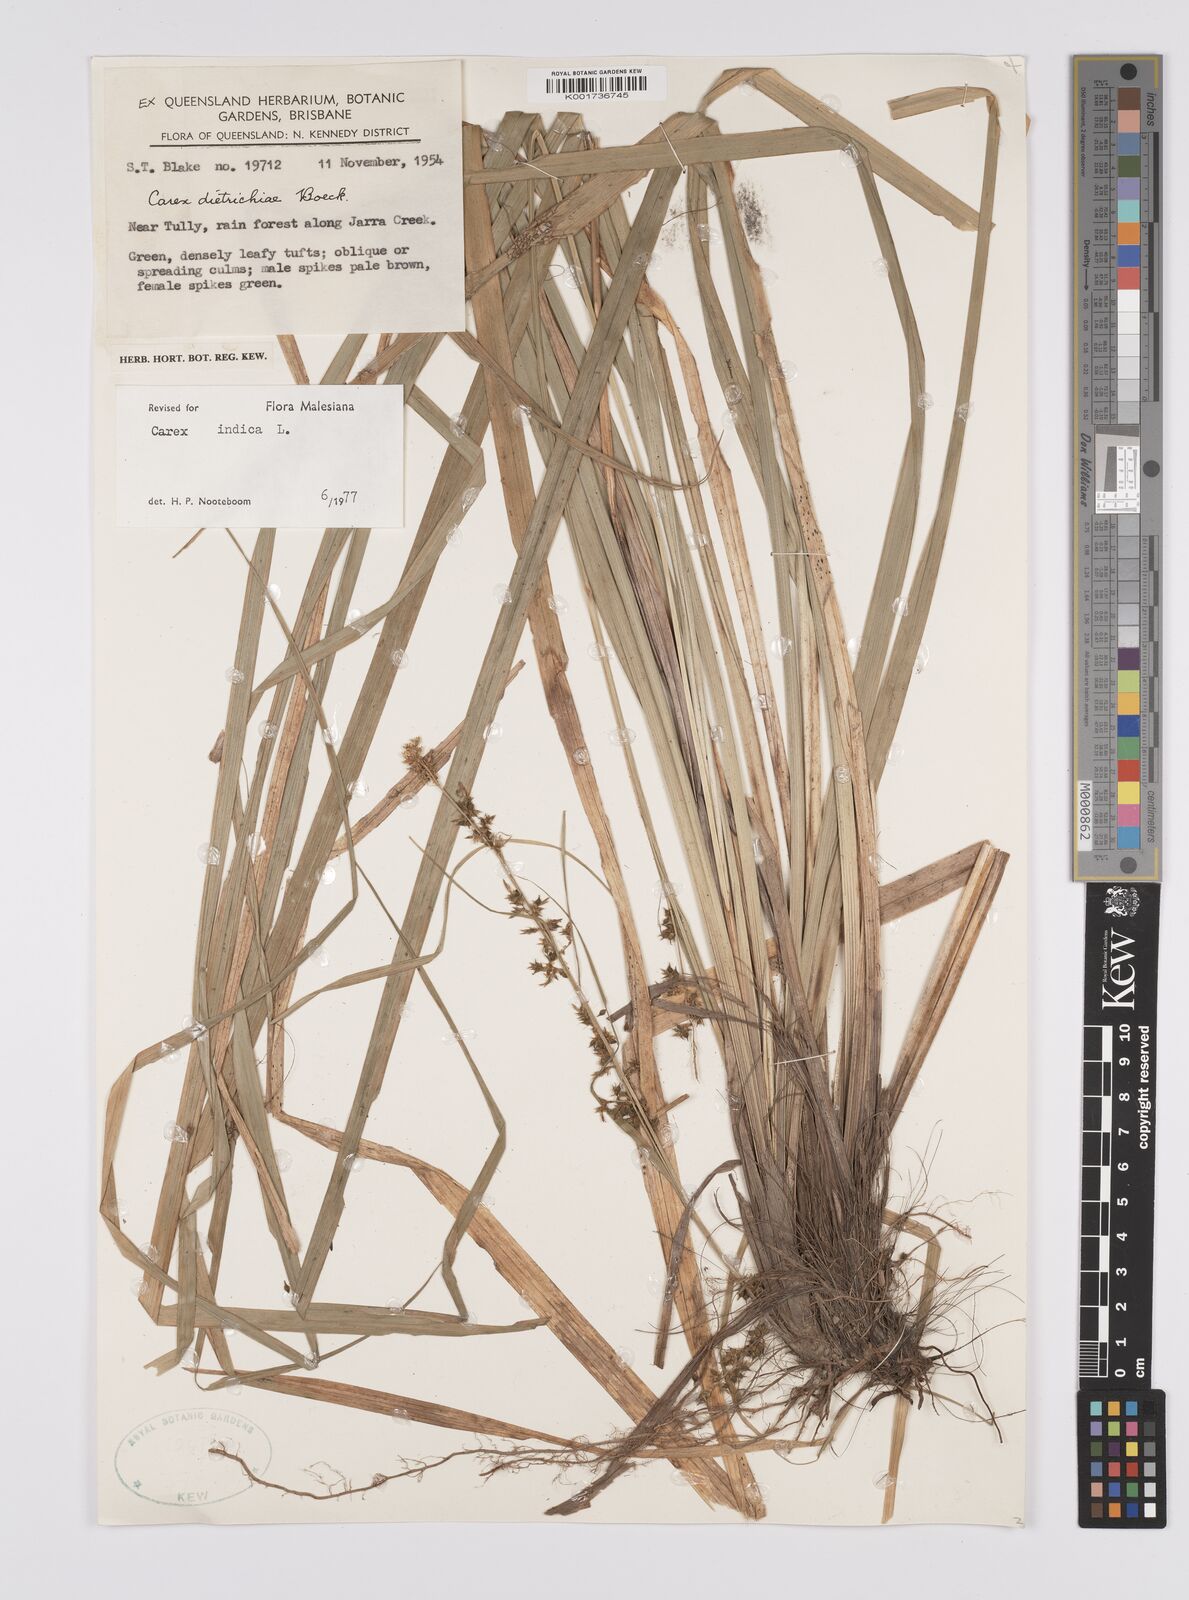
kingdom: Plantae
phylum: Tracheophyta
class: Liliopsida
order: Poales
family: Cyperaceae
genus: Carex
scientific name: Carex indica
